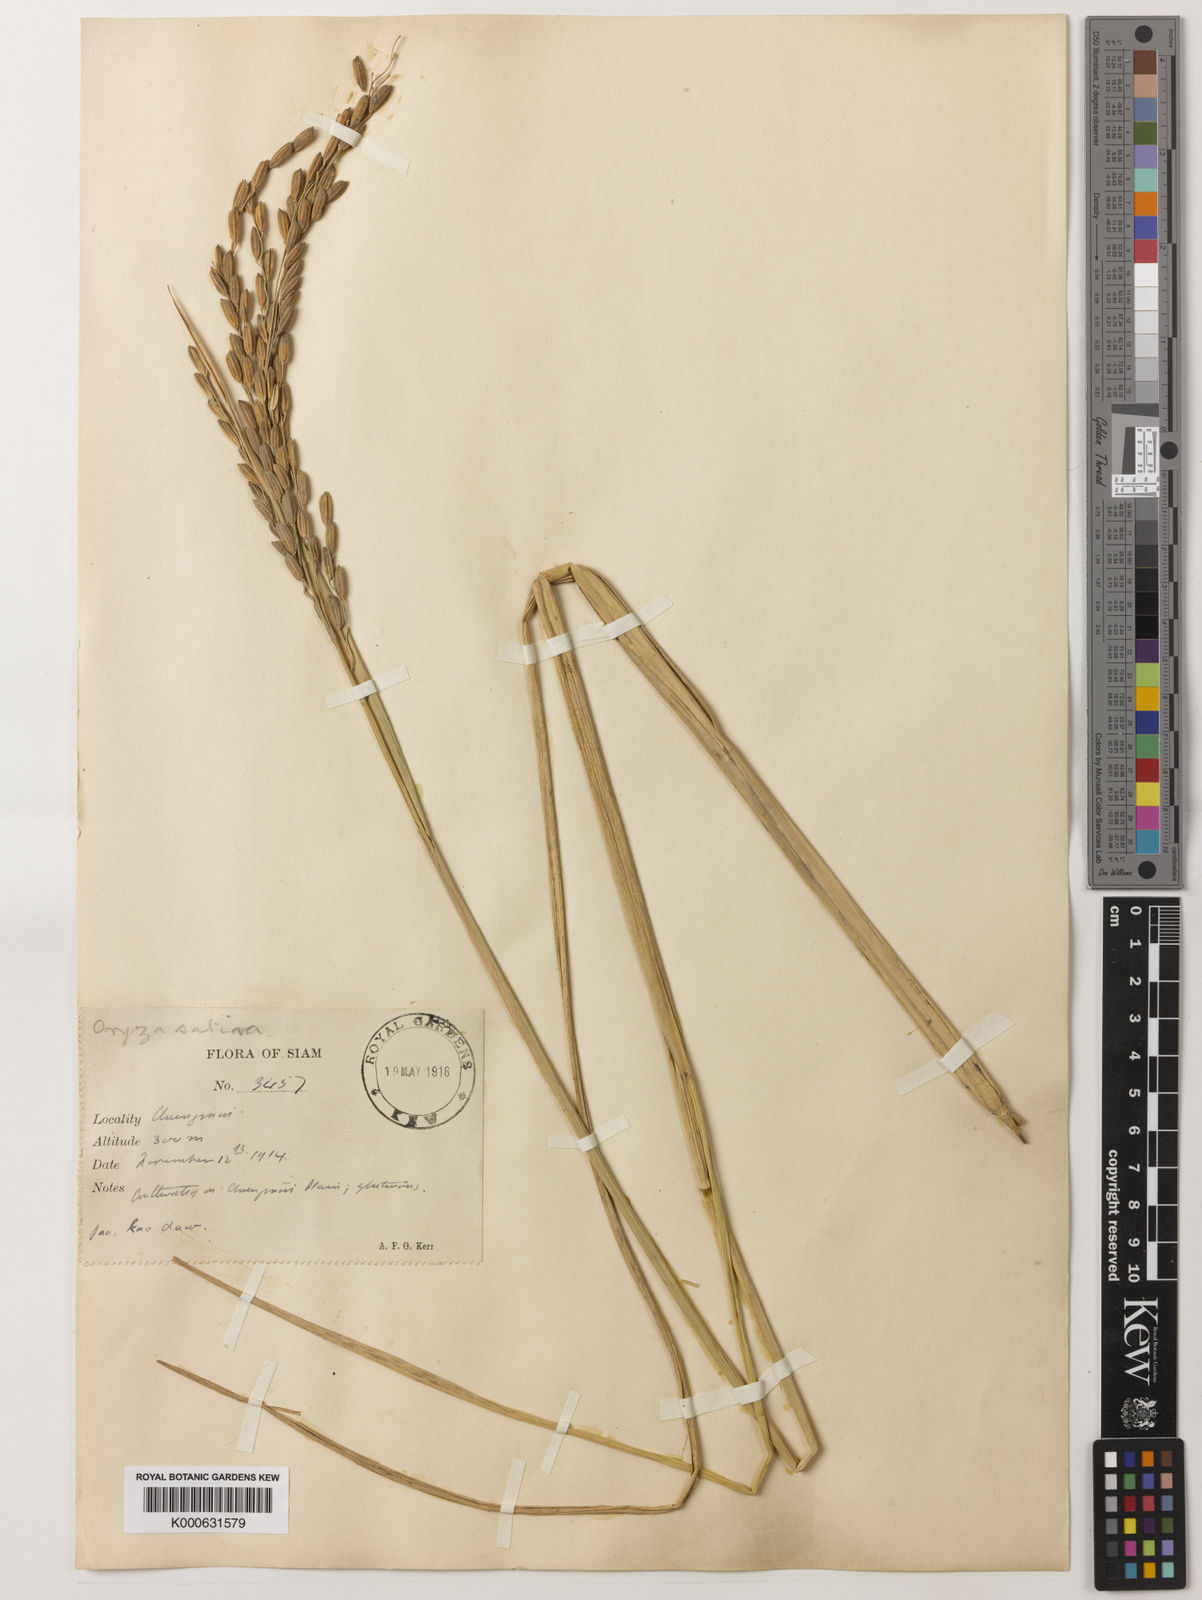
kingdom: Plantae
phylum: Tracheophyta
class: Liliopsida
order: Poales
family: Poaceae
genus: Oryza
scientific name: Oryza sativa
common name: Rice
